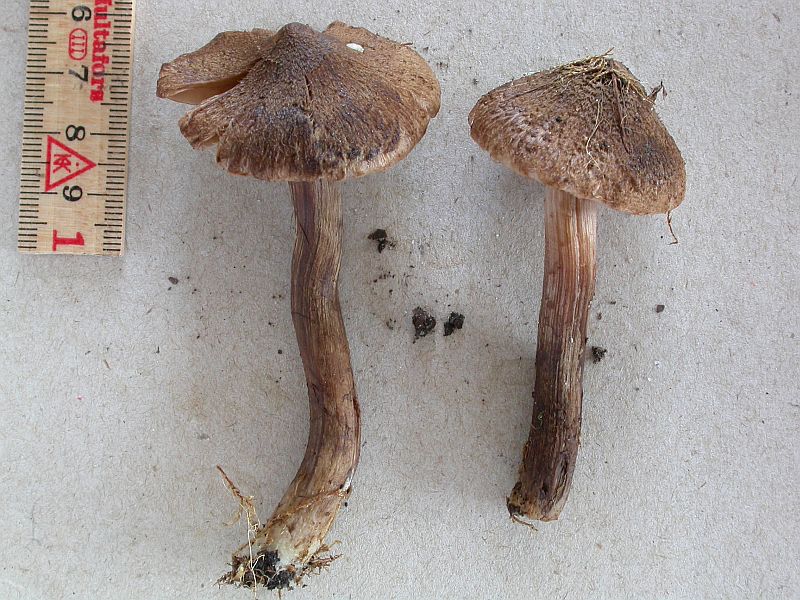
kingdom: Fungi
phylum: Basidiomycota
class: Agaricomycetes
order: Agaricales
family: Inocybaceae
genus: Inocybe
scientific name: Inocybe subcarpta
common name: plantage-trævlhat
